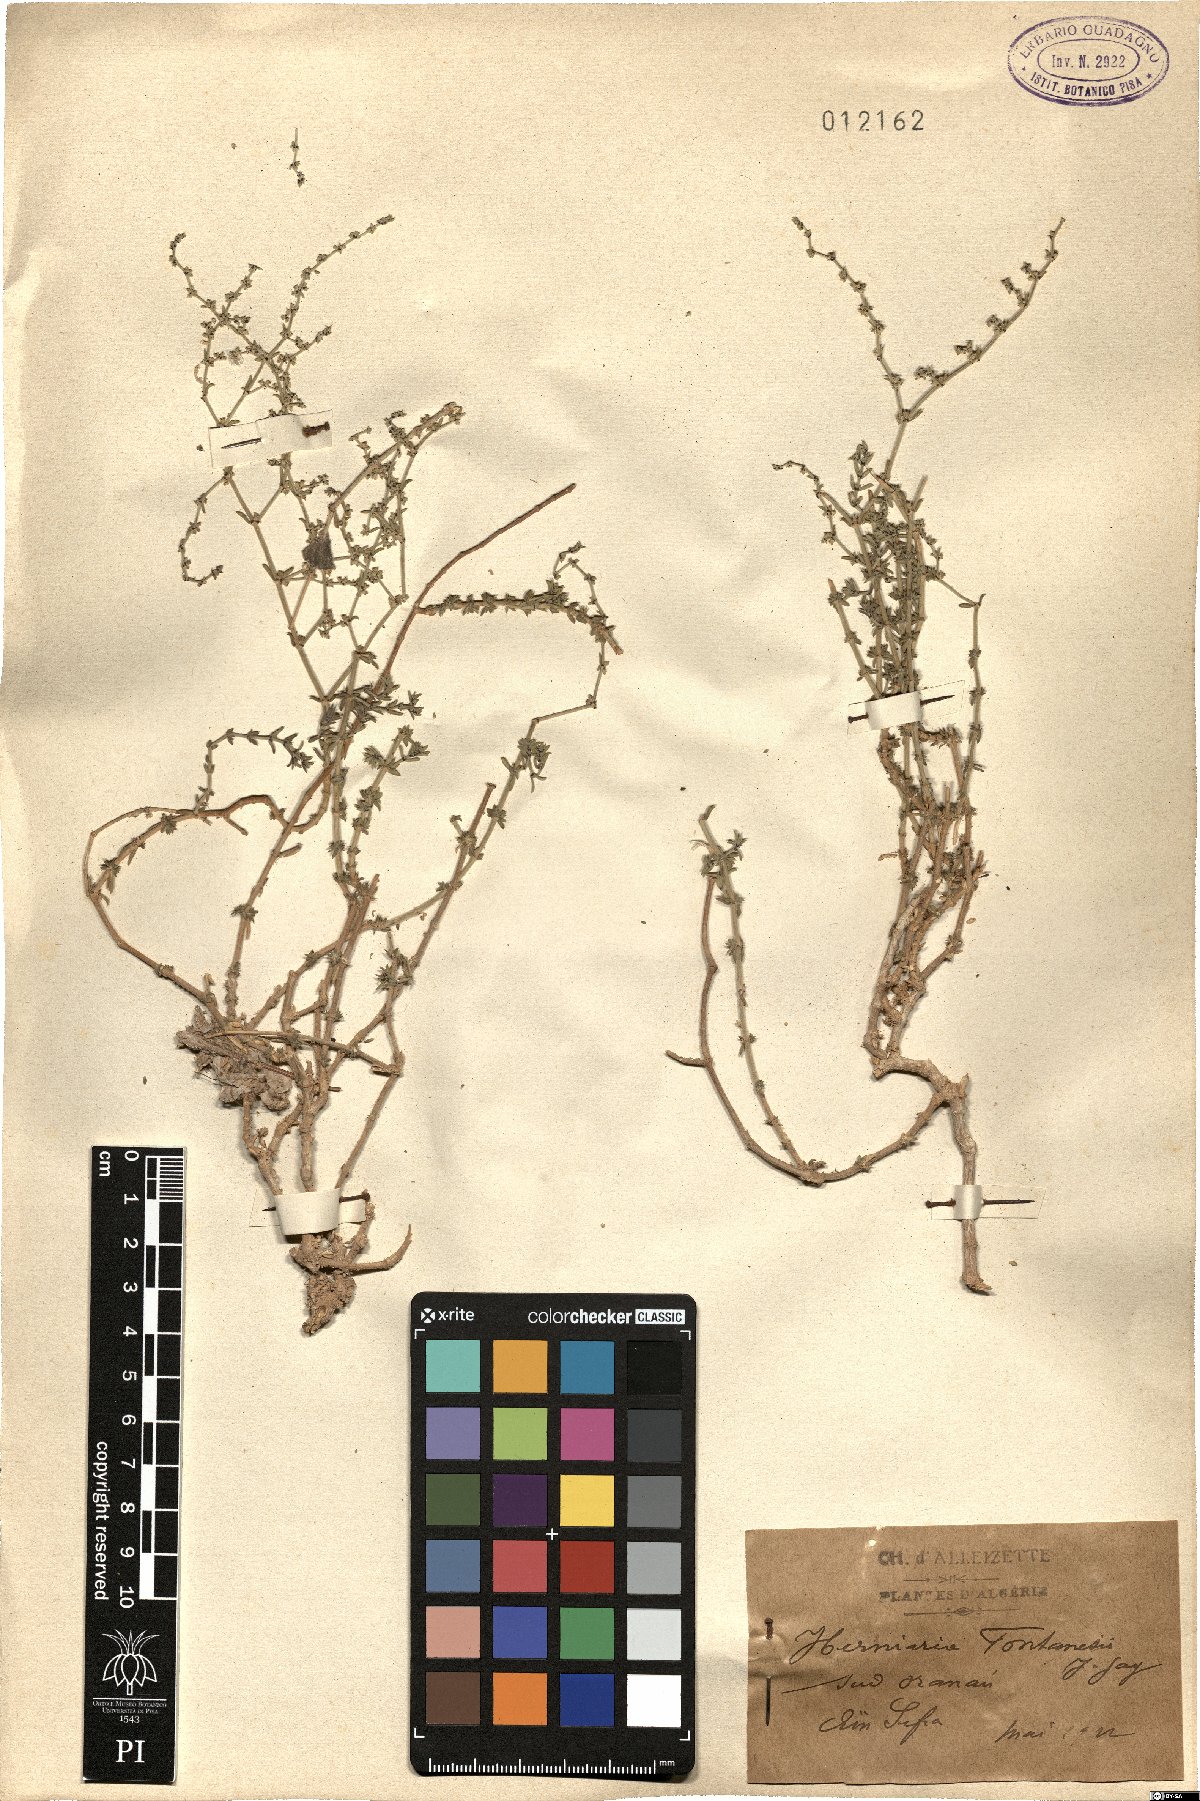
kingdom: Plantae
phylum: Tracheophyta
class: Magnoliopsida
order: Caryophyllales
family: Caryophyllaceae
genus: Herniaria
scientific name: Herniaria fontanesii
